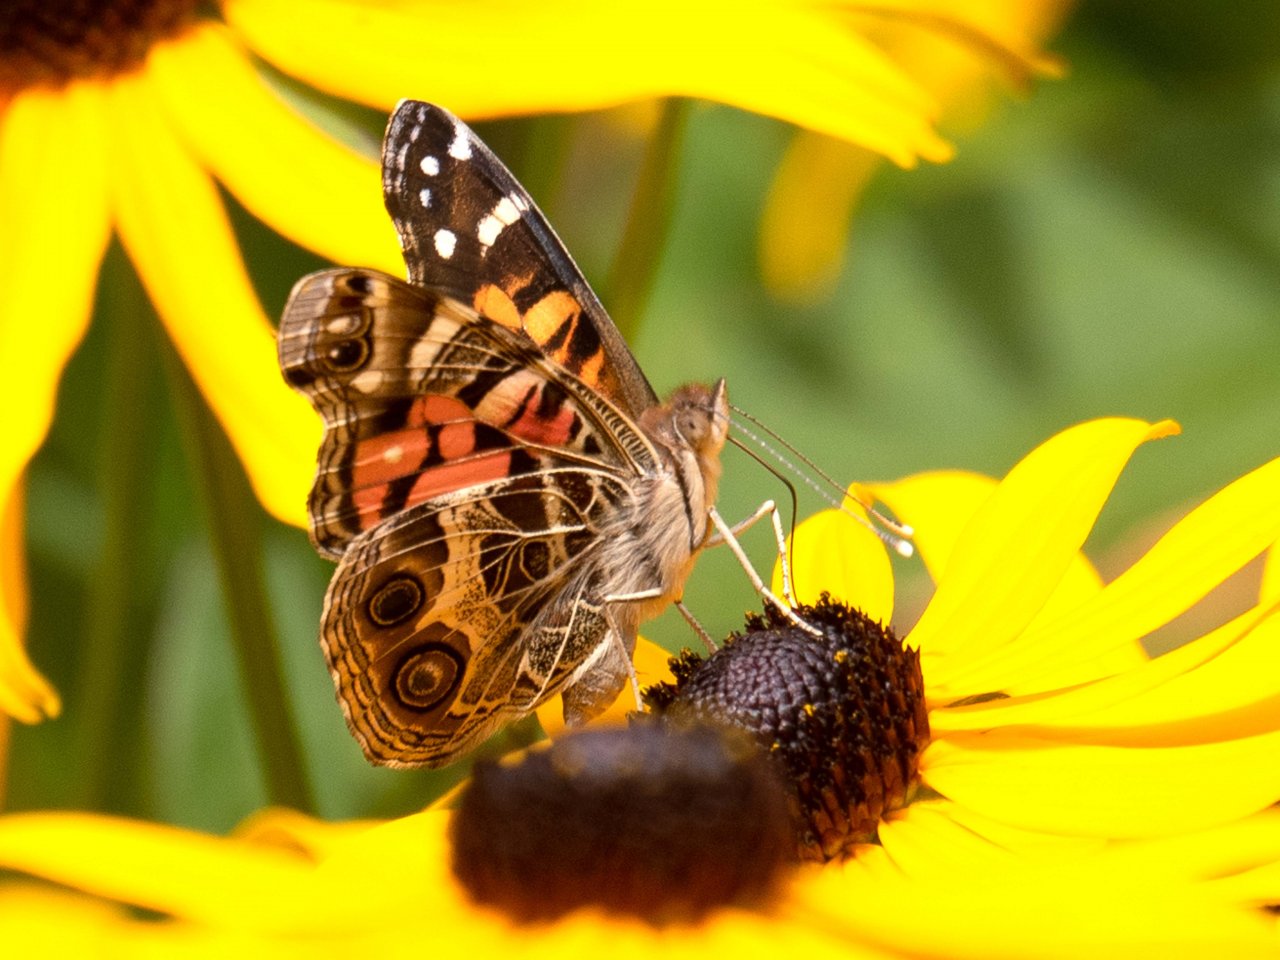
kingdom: Animalia
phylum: Arthropoda
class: Insecta
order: Lepidoptera
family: Nymphalidae
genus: Vanessa
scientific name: Vanessa virginiensis
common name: American Lady
